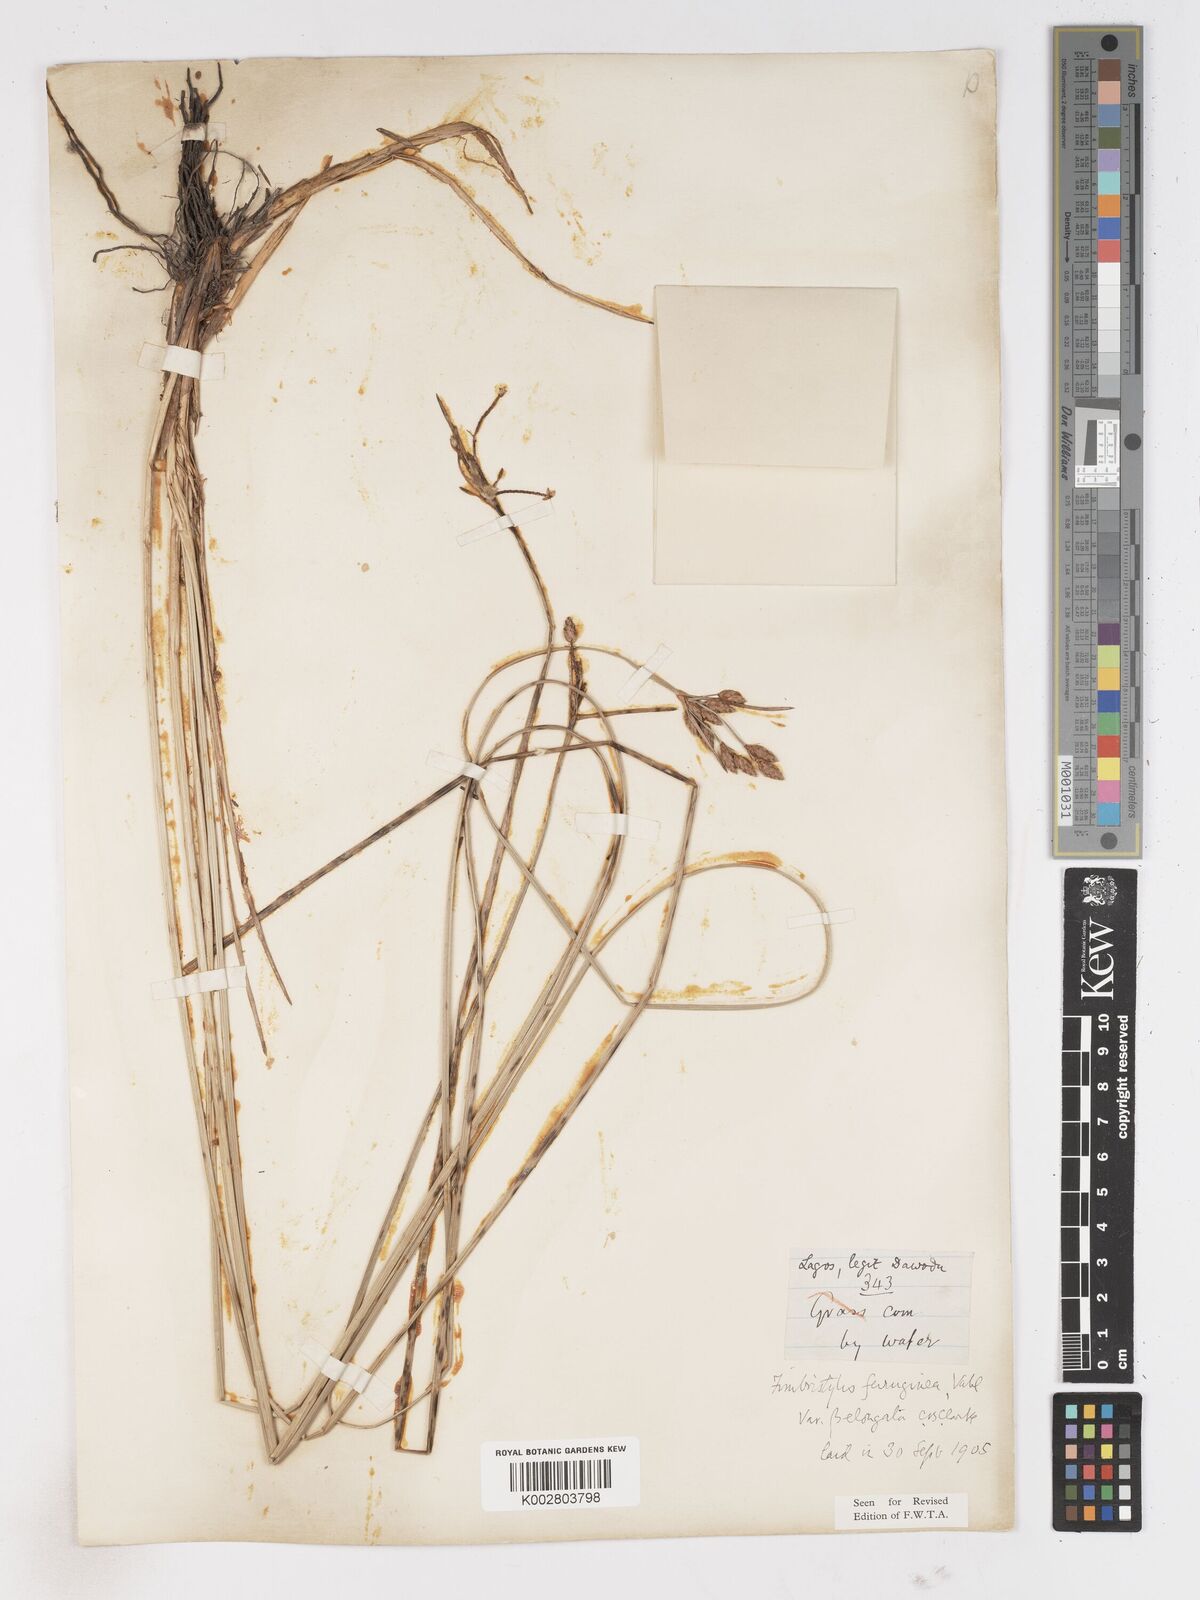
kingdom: Plantae
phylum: Tracheophyta
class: Liliopsida
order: Poales
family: Cyperaceae
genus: Fimbristylis
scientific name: Fimbristylis ferruginea
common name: West indian fimbry
